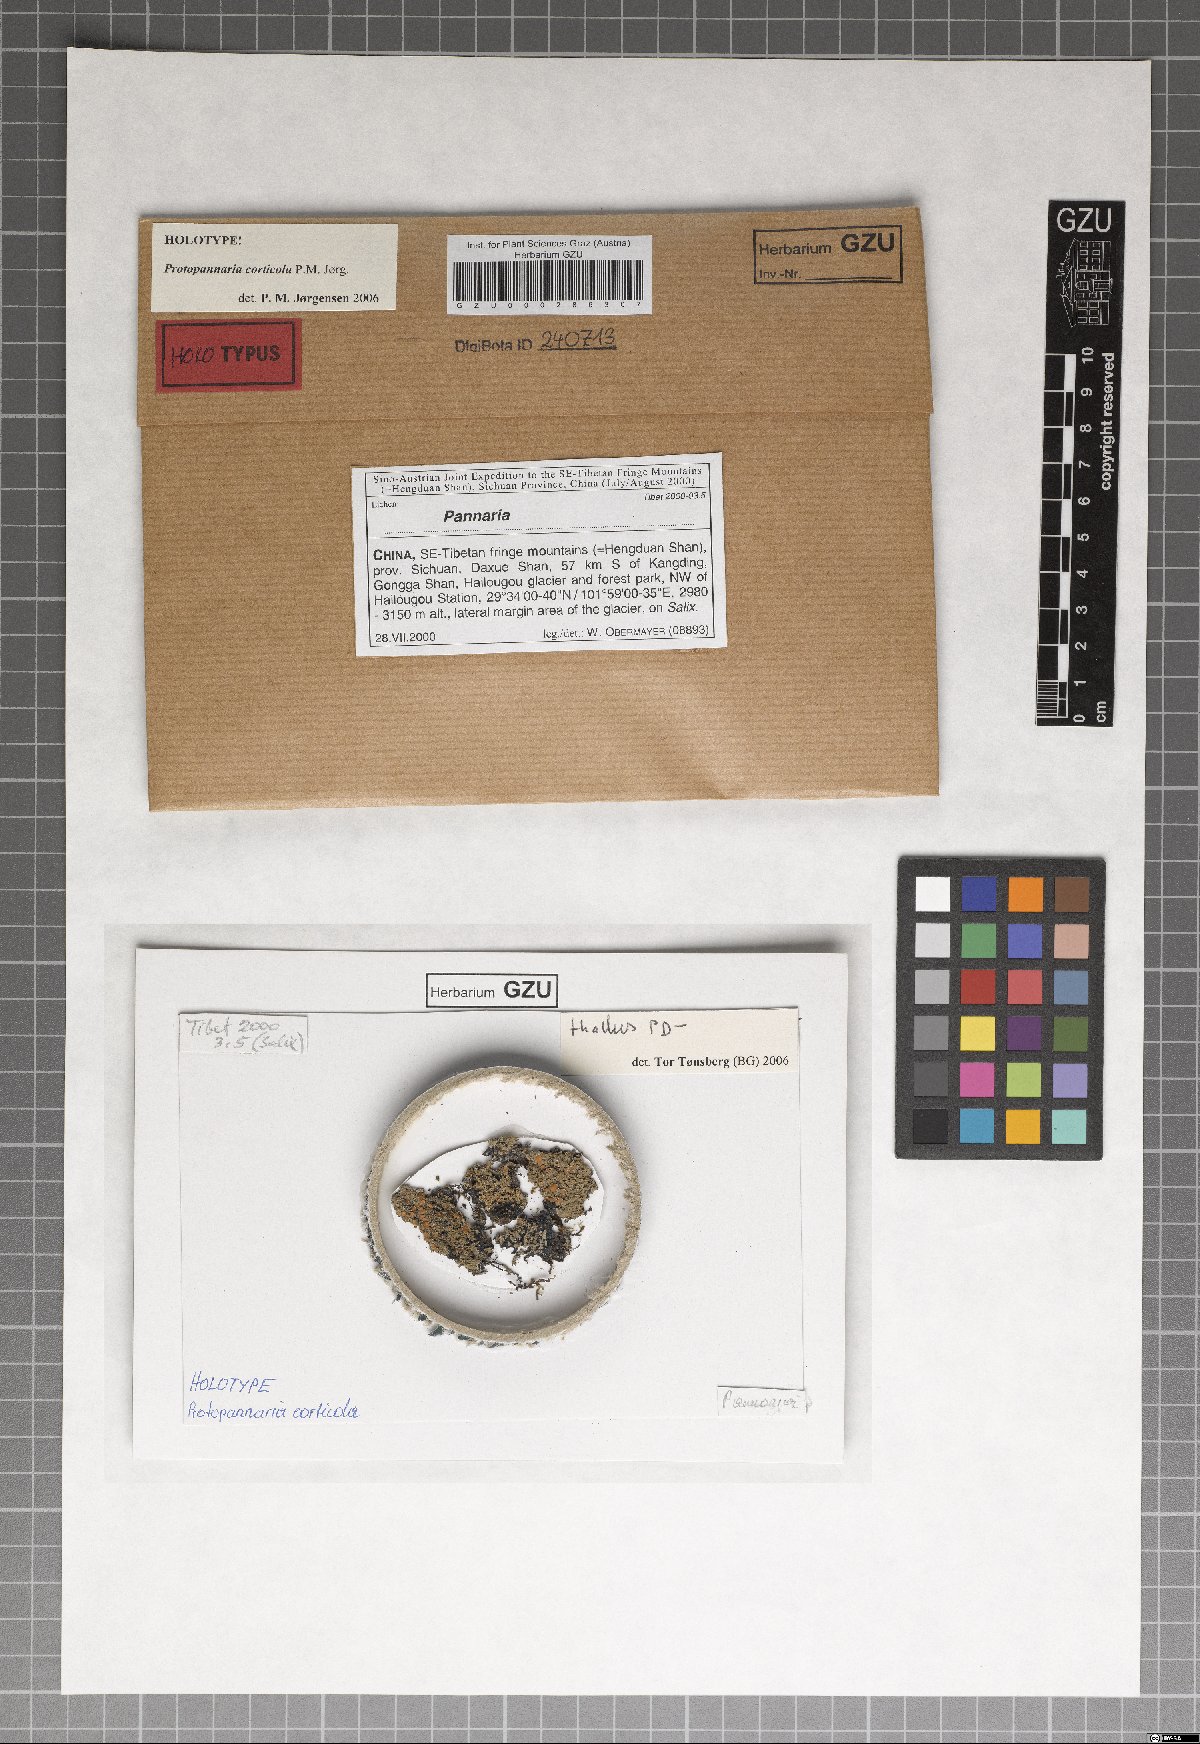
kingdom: Fungi
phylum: Ascomycota
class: Lecanoromycetes
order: Peltigerales
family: Pannariaceae
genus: Protopannaria
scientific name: Protopannaria corticola
